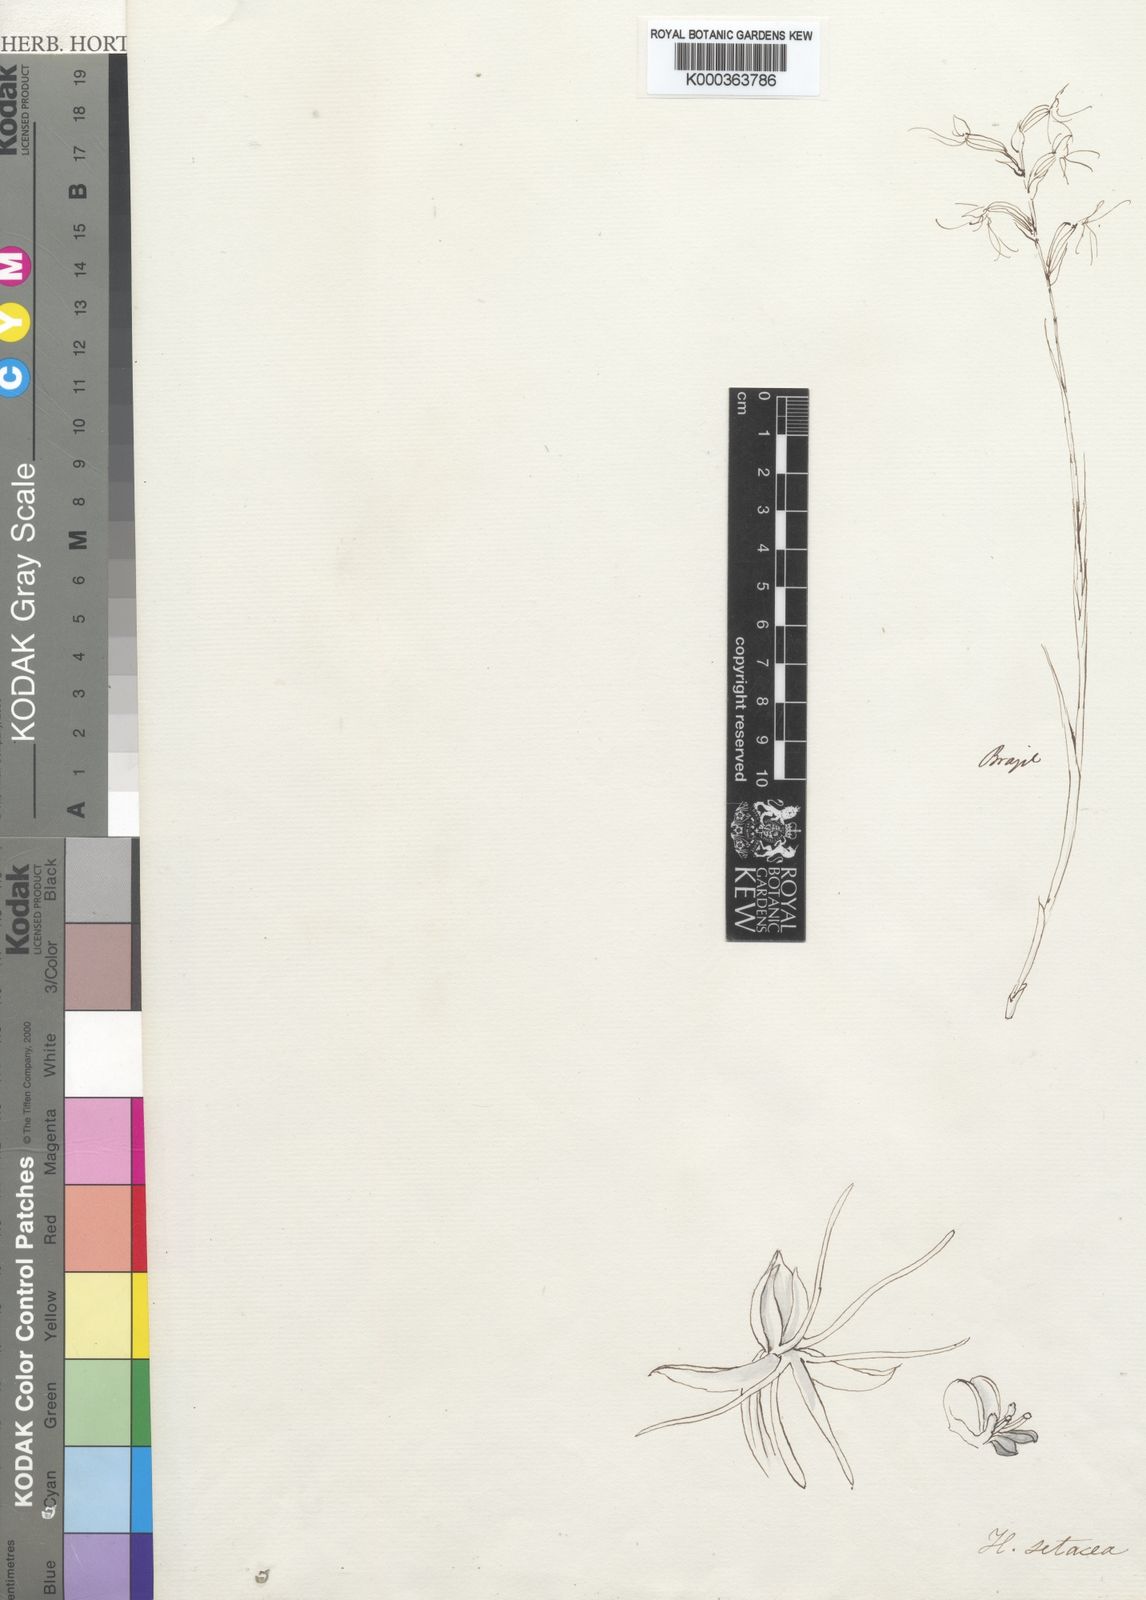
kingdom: Plantae
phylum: Tracheophyta
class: Liliopsida
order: Asparagales
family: Orchidaceae
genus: Habenaria
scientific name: Habenaria setacea
